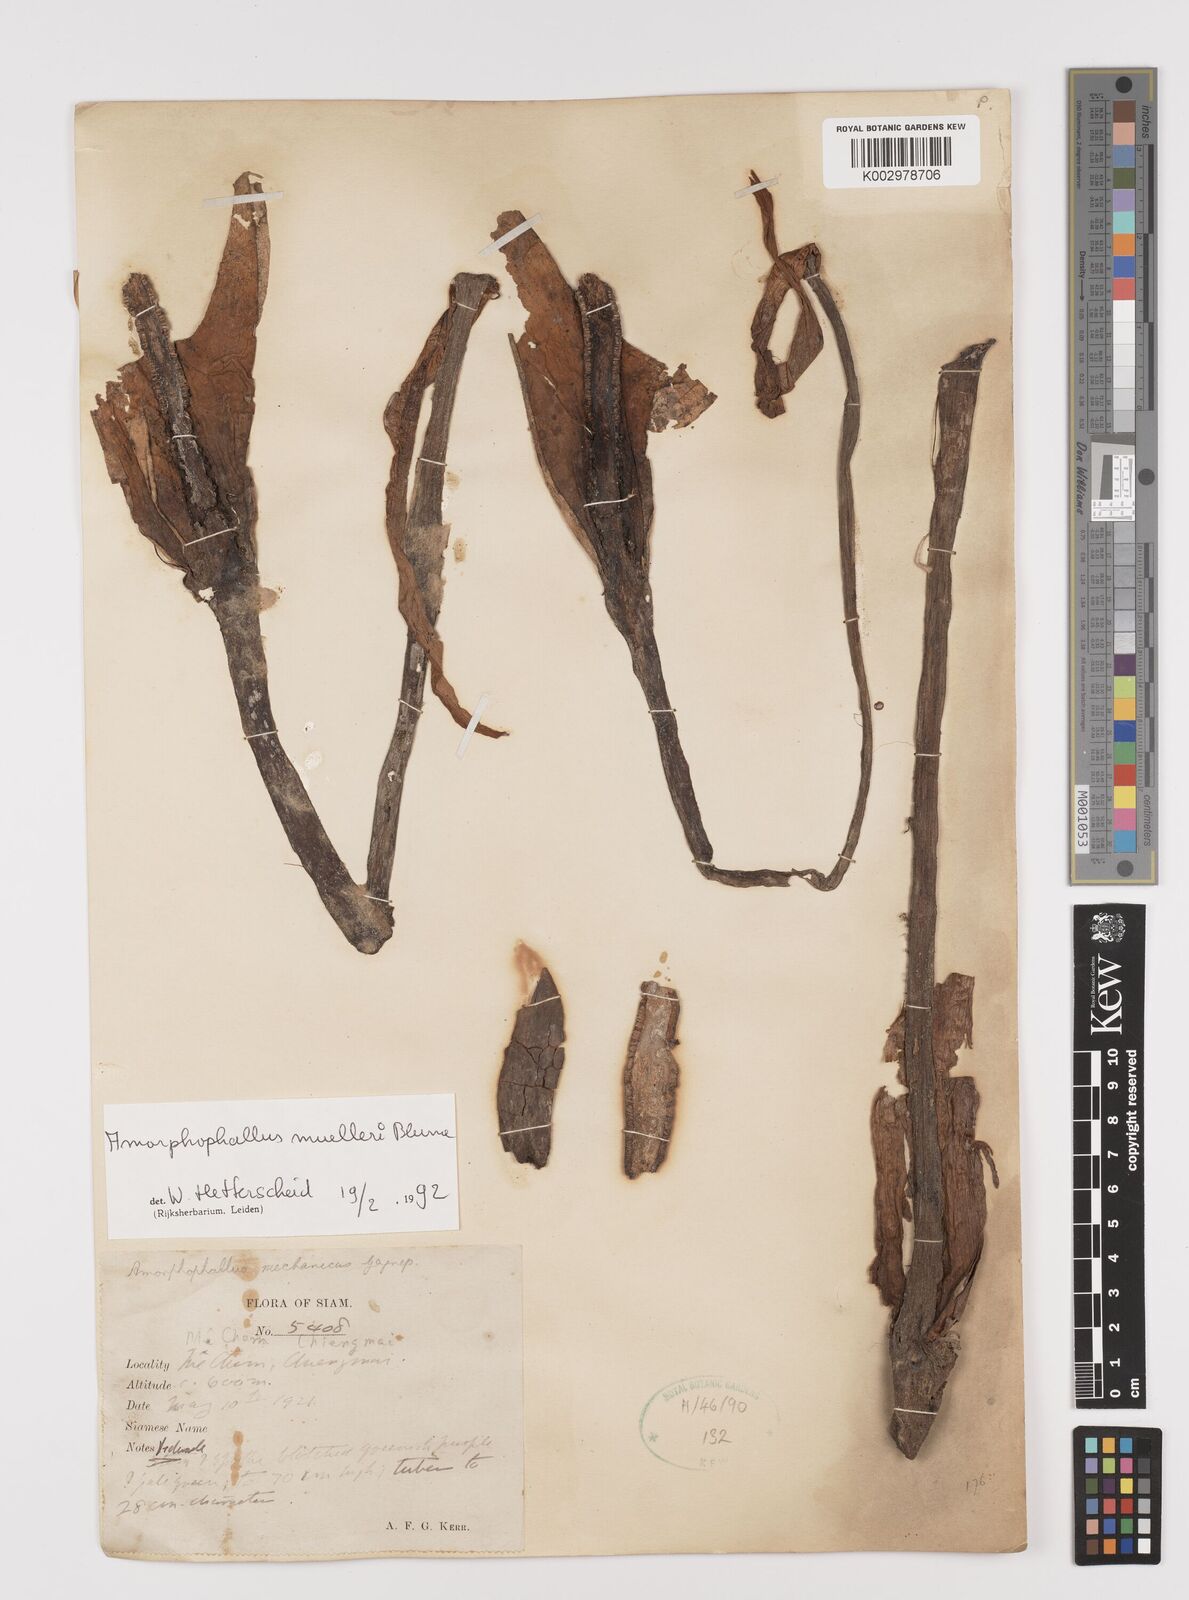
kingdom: Plantae
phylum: Tracheophyta
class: Liliopsida
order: Alismatales
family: Araceae
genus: Amorphophallus
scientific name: Amorphophallus muelleri
